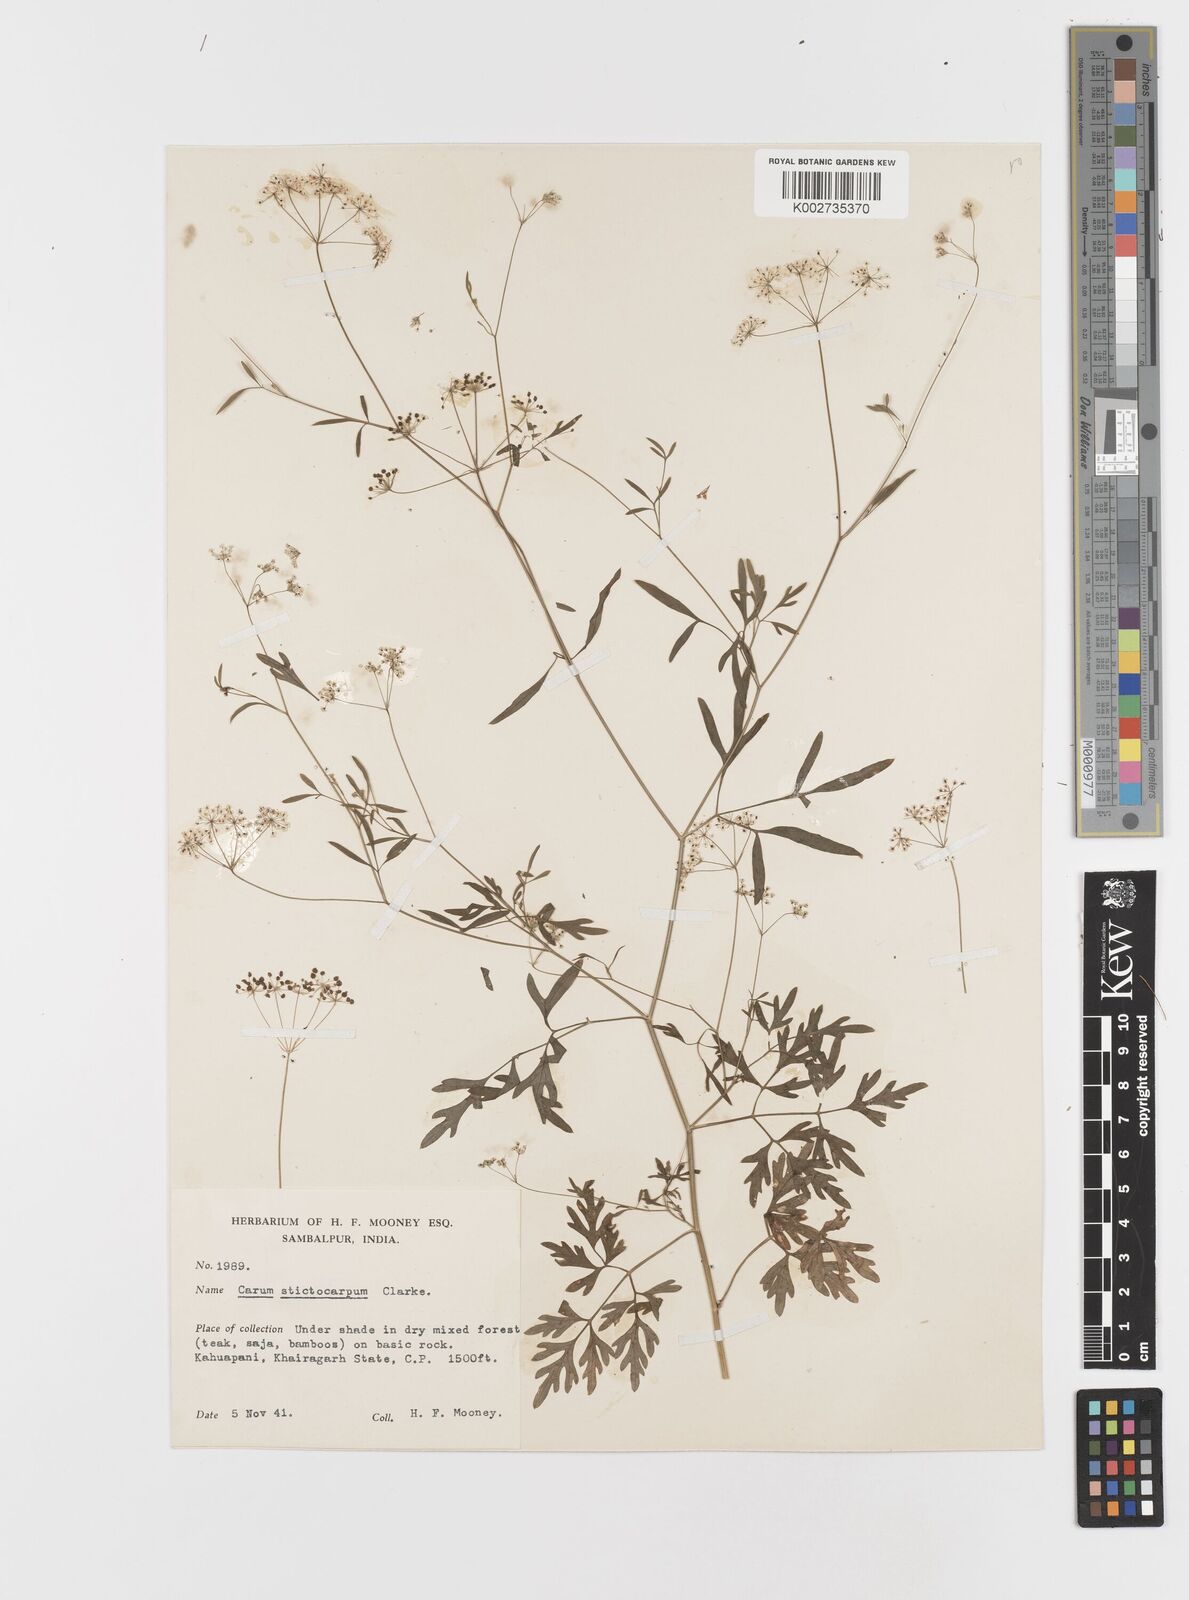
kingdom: Plantae
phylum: Tracheophyta
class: Magnoliopsida
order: Apiales
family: Apiaceae
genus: Psammogeton
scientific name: Psammogeton involucratum
